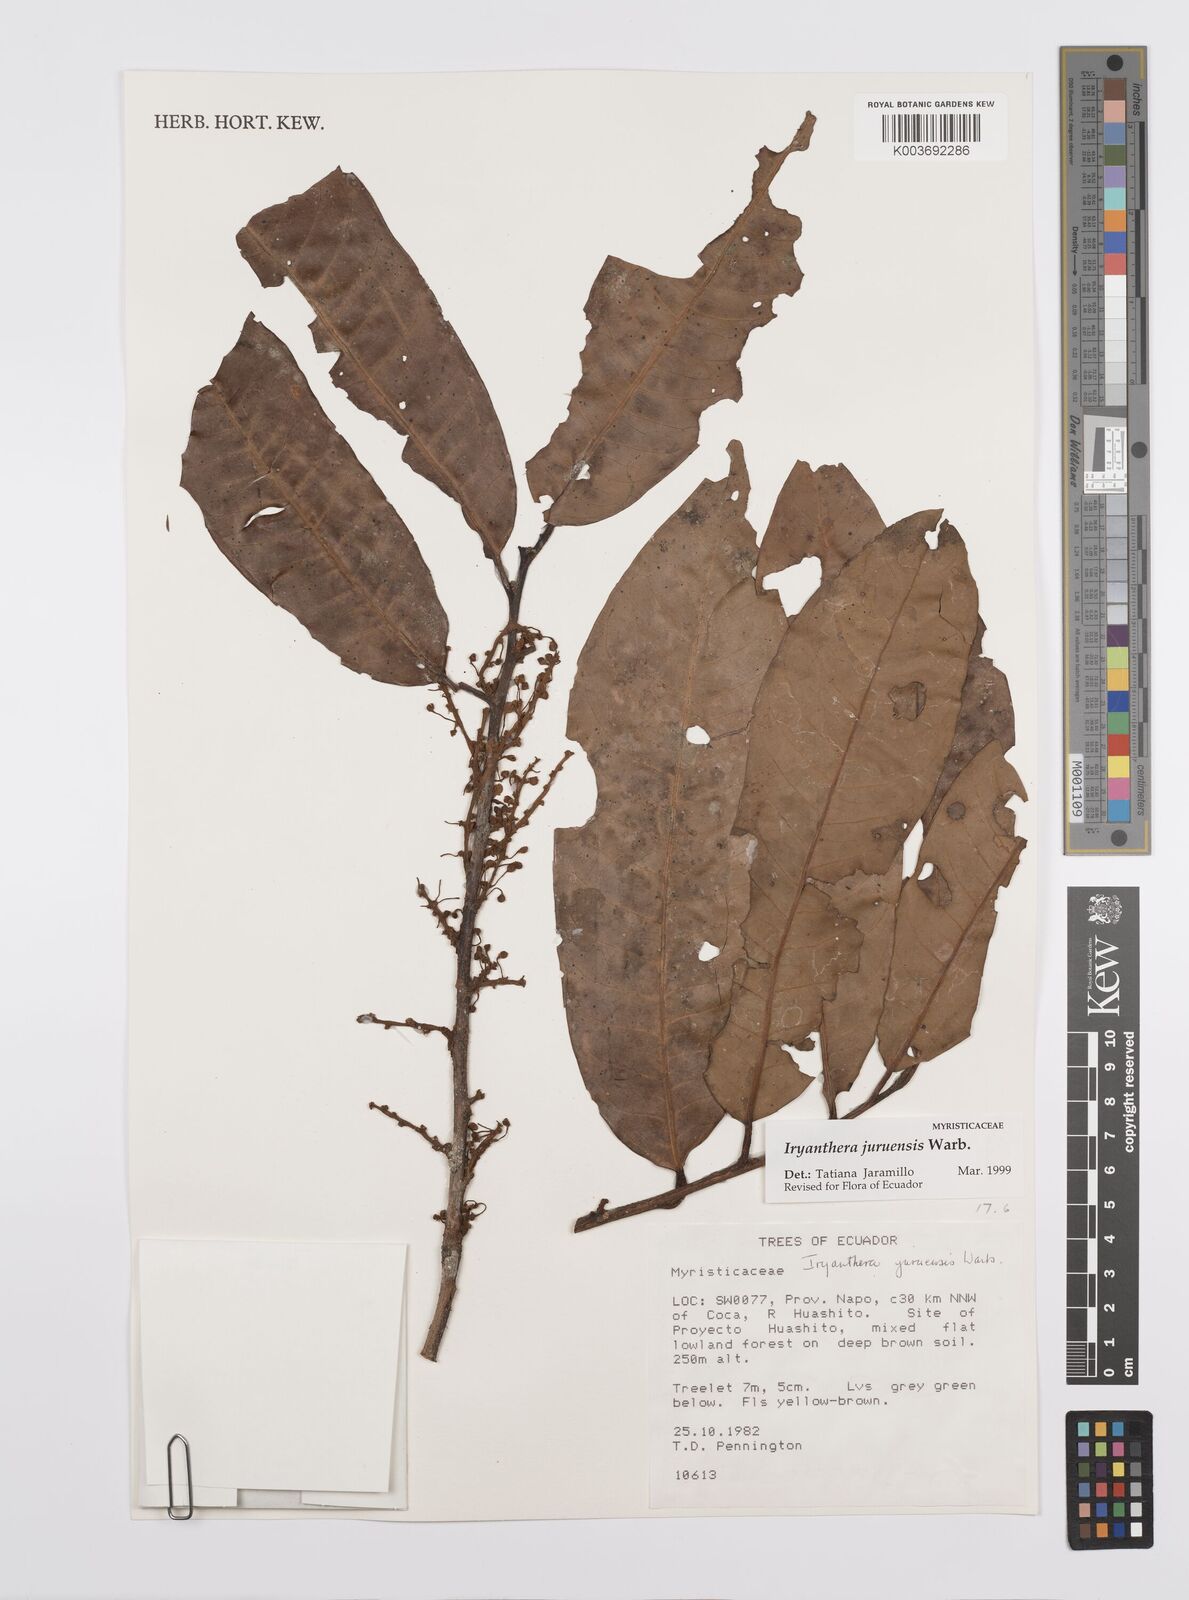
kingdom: Plantae
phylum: Tracheophyta
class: Magnoliopsida
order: Magnoliales
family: Myristicaceae
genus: Iryanthera
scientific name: Iryanthera juruensis
